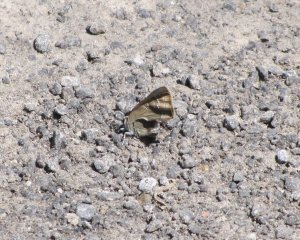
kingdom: Animalia
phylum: Arthropoda
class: Insecta
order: Lepidoptera
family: Lycaenidae
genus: Strymon
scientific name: Strymon caryaevorus
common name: Hickory Hairstreak
